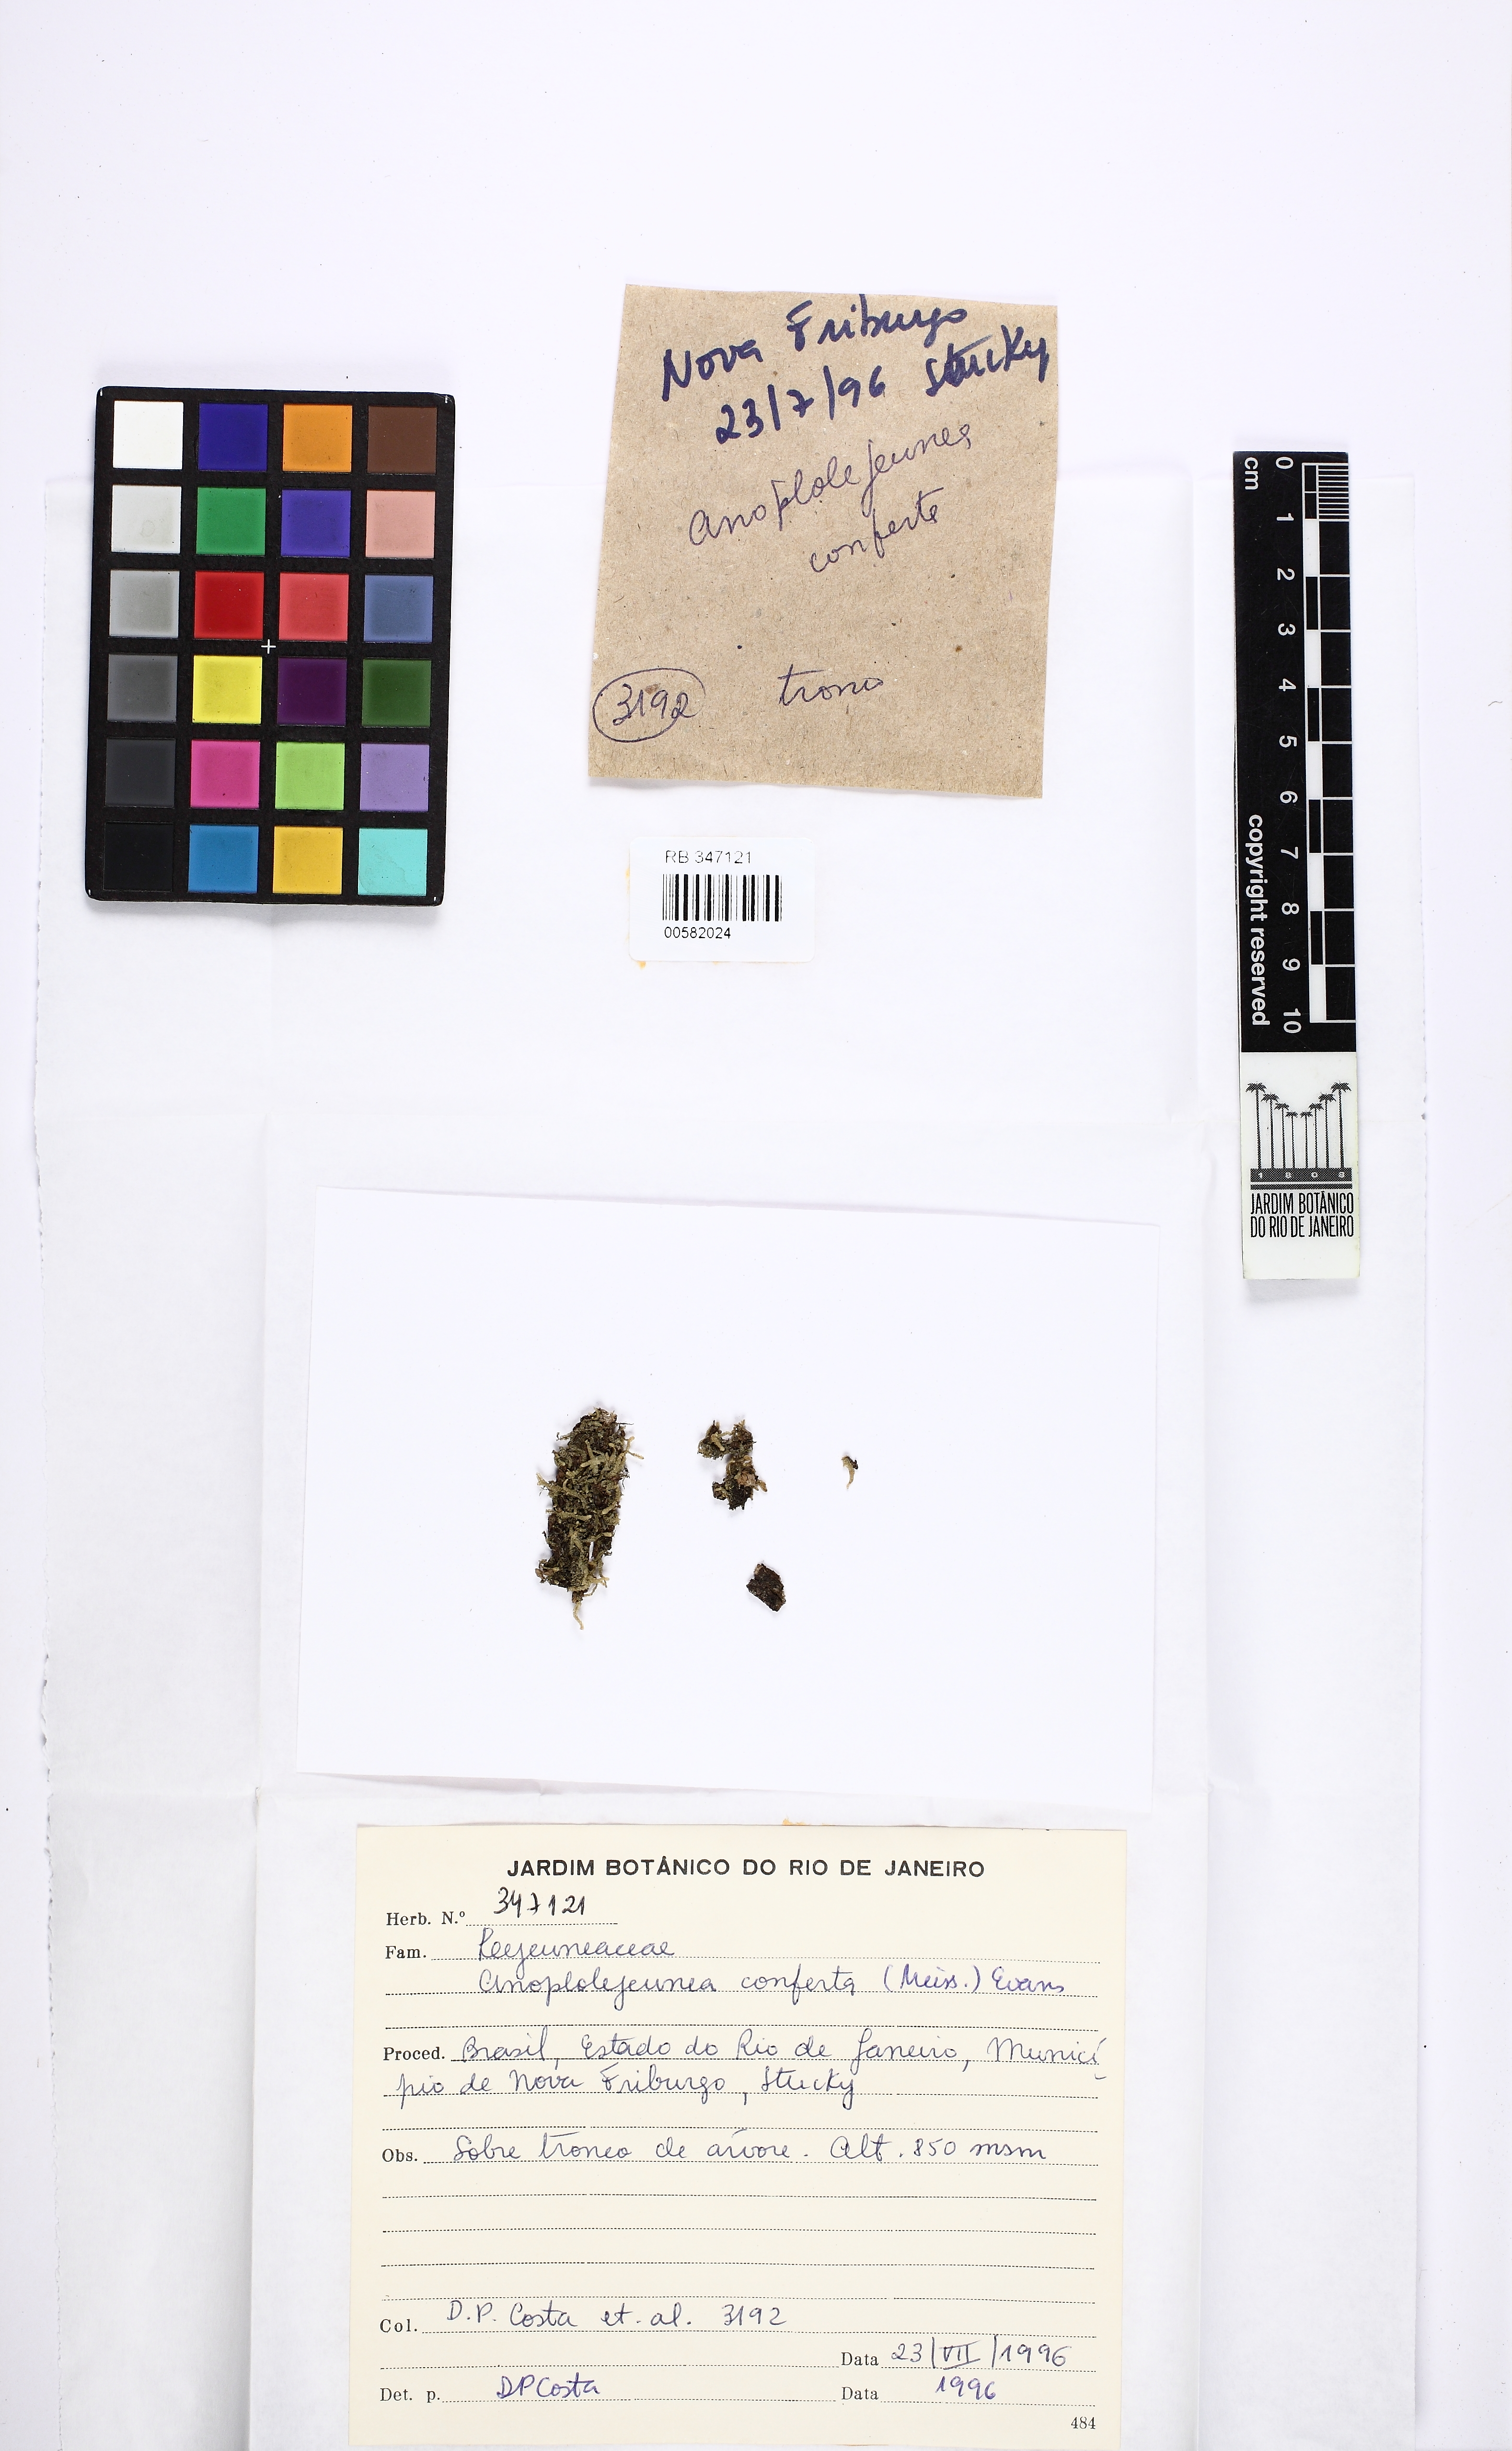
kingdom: Plantae
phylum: Marchantiophyta
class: Jungermanniopsida
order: Porellales
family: Lejeuneaceae
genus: Anoplolejeunea
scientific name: Anoplolejeunea conferta
